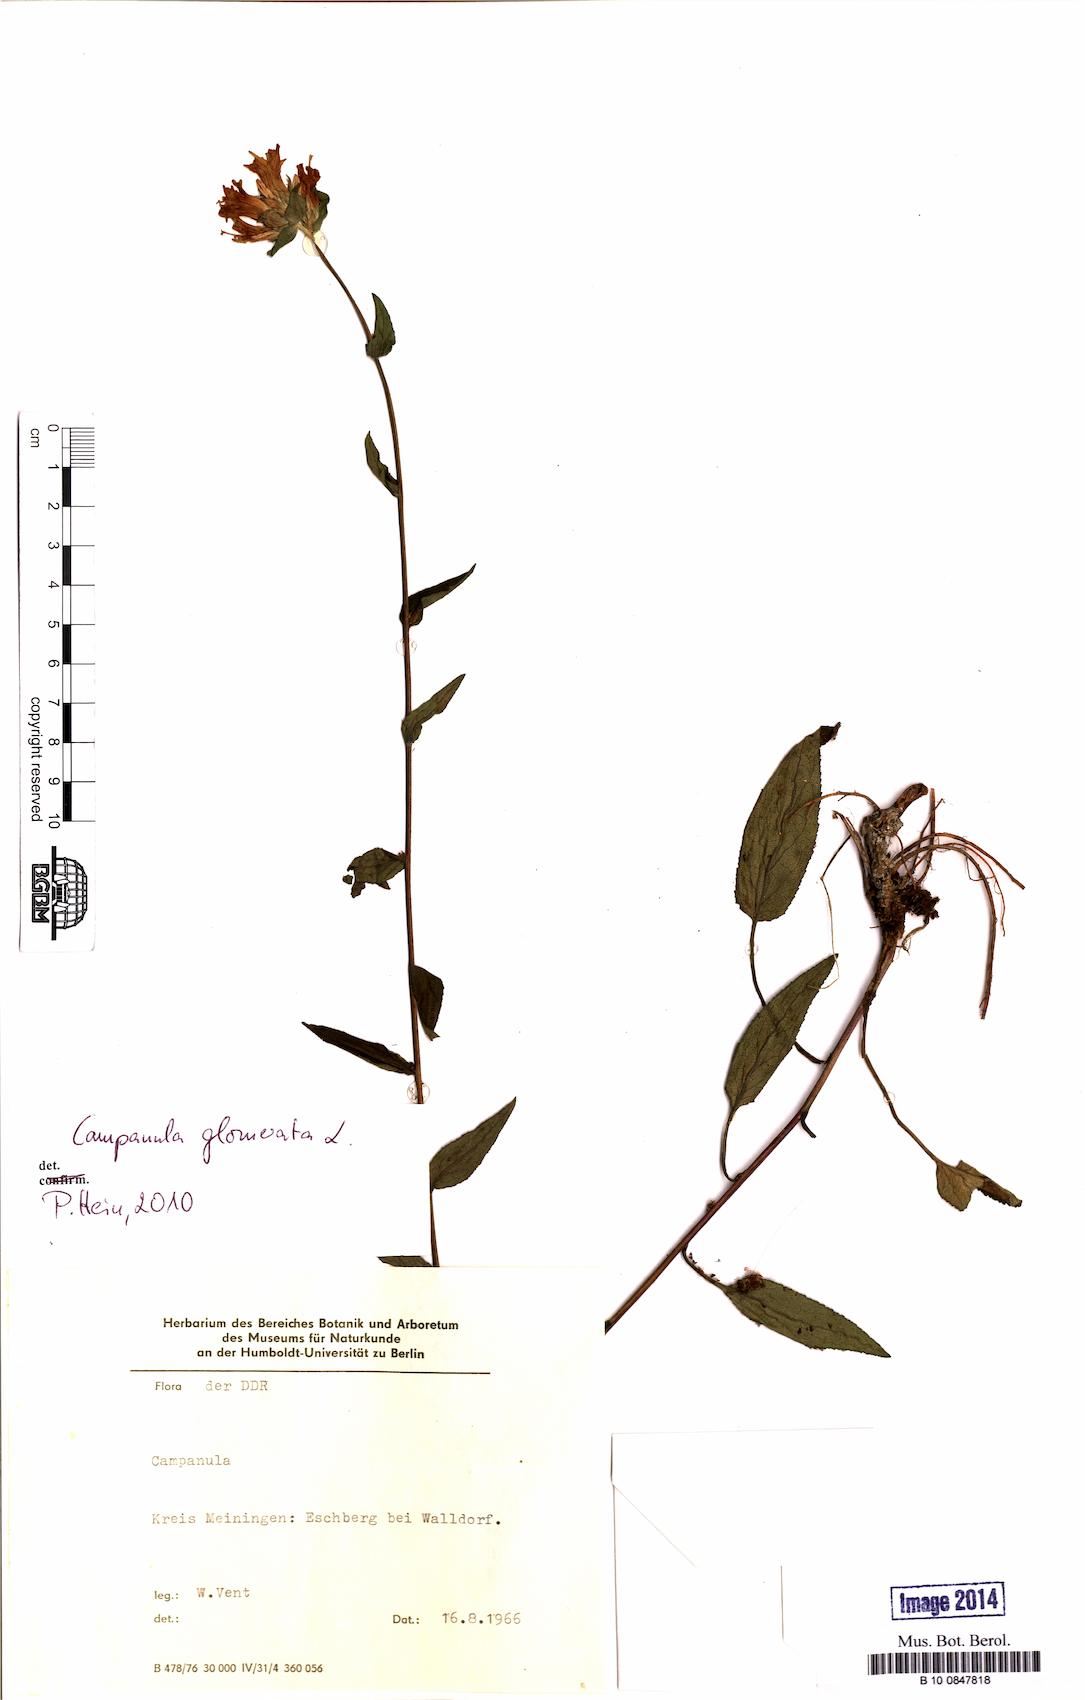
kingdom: Plantae
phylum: Tracheophyta
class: Magnoliopsida
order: Asterales
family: Campanulaceae
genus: Campanula
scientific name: Campanula glomerata
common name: Clustered bellflower
